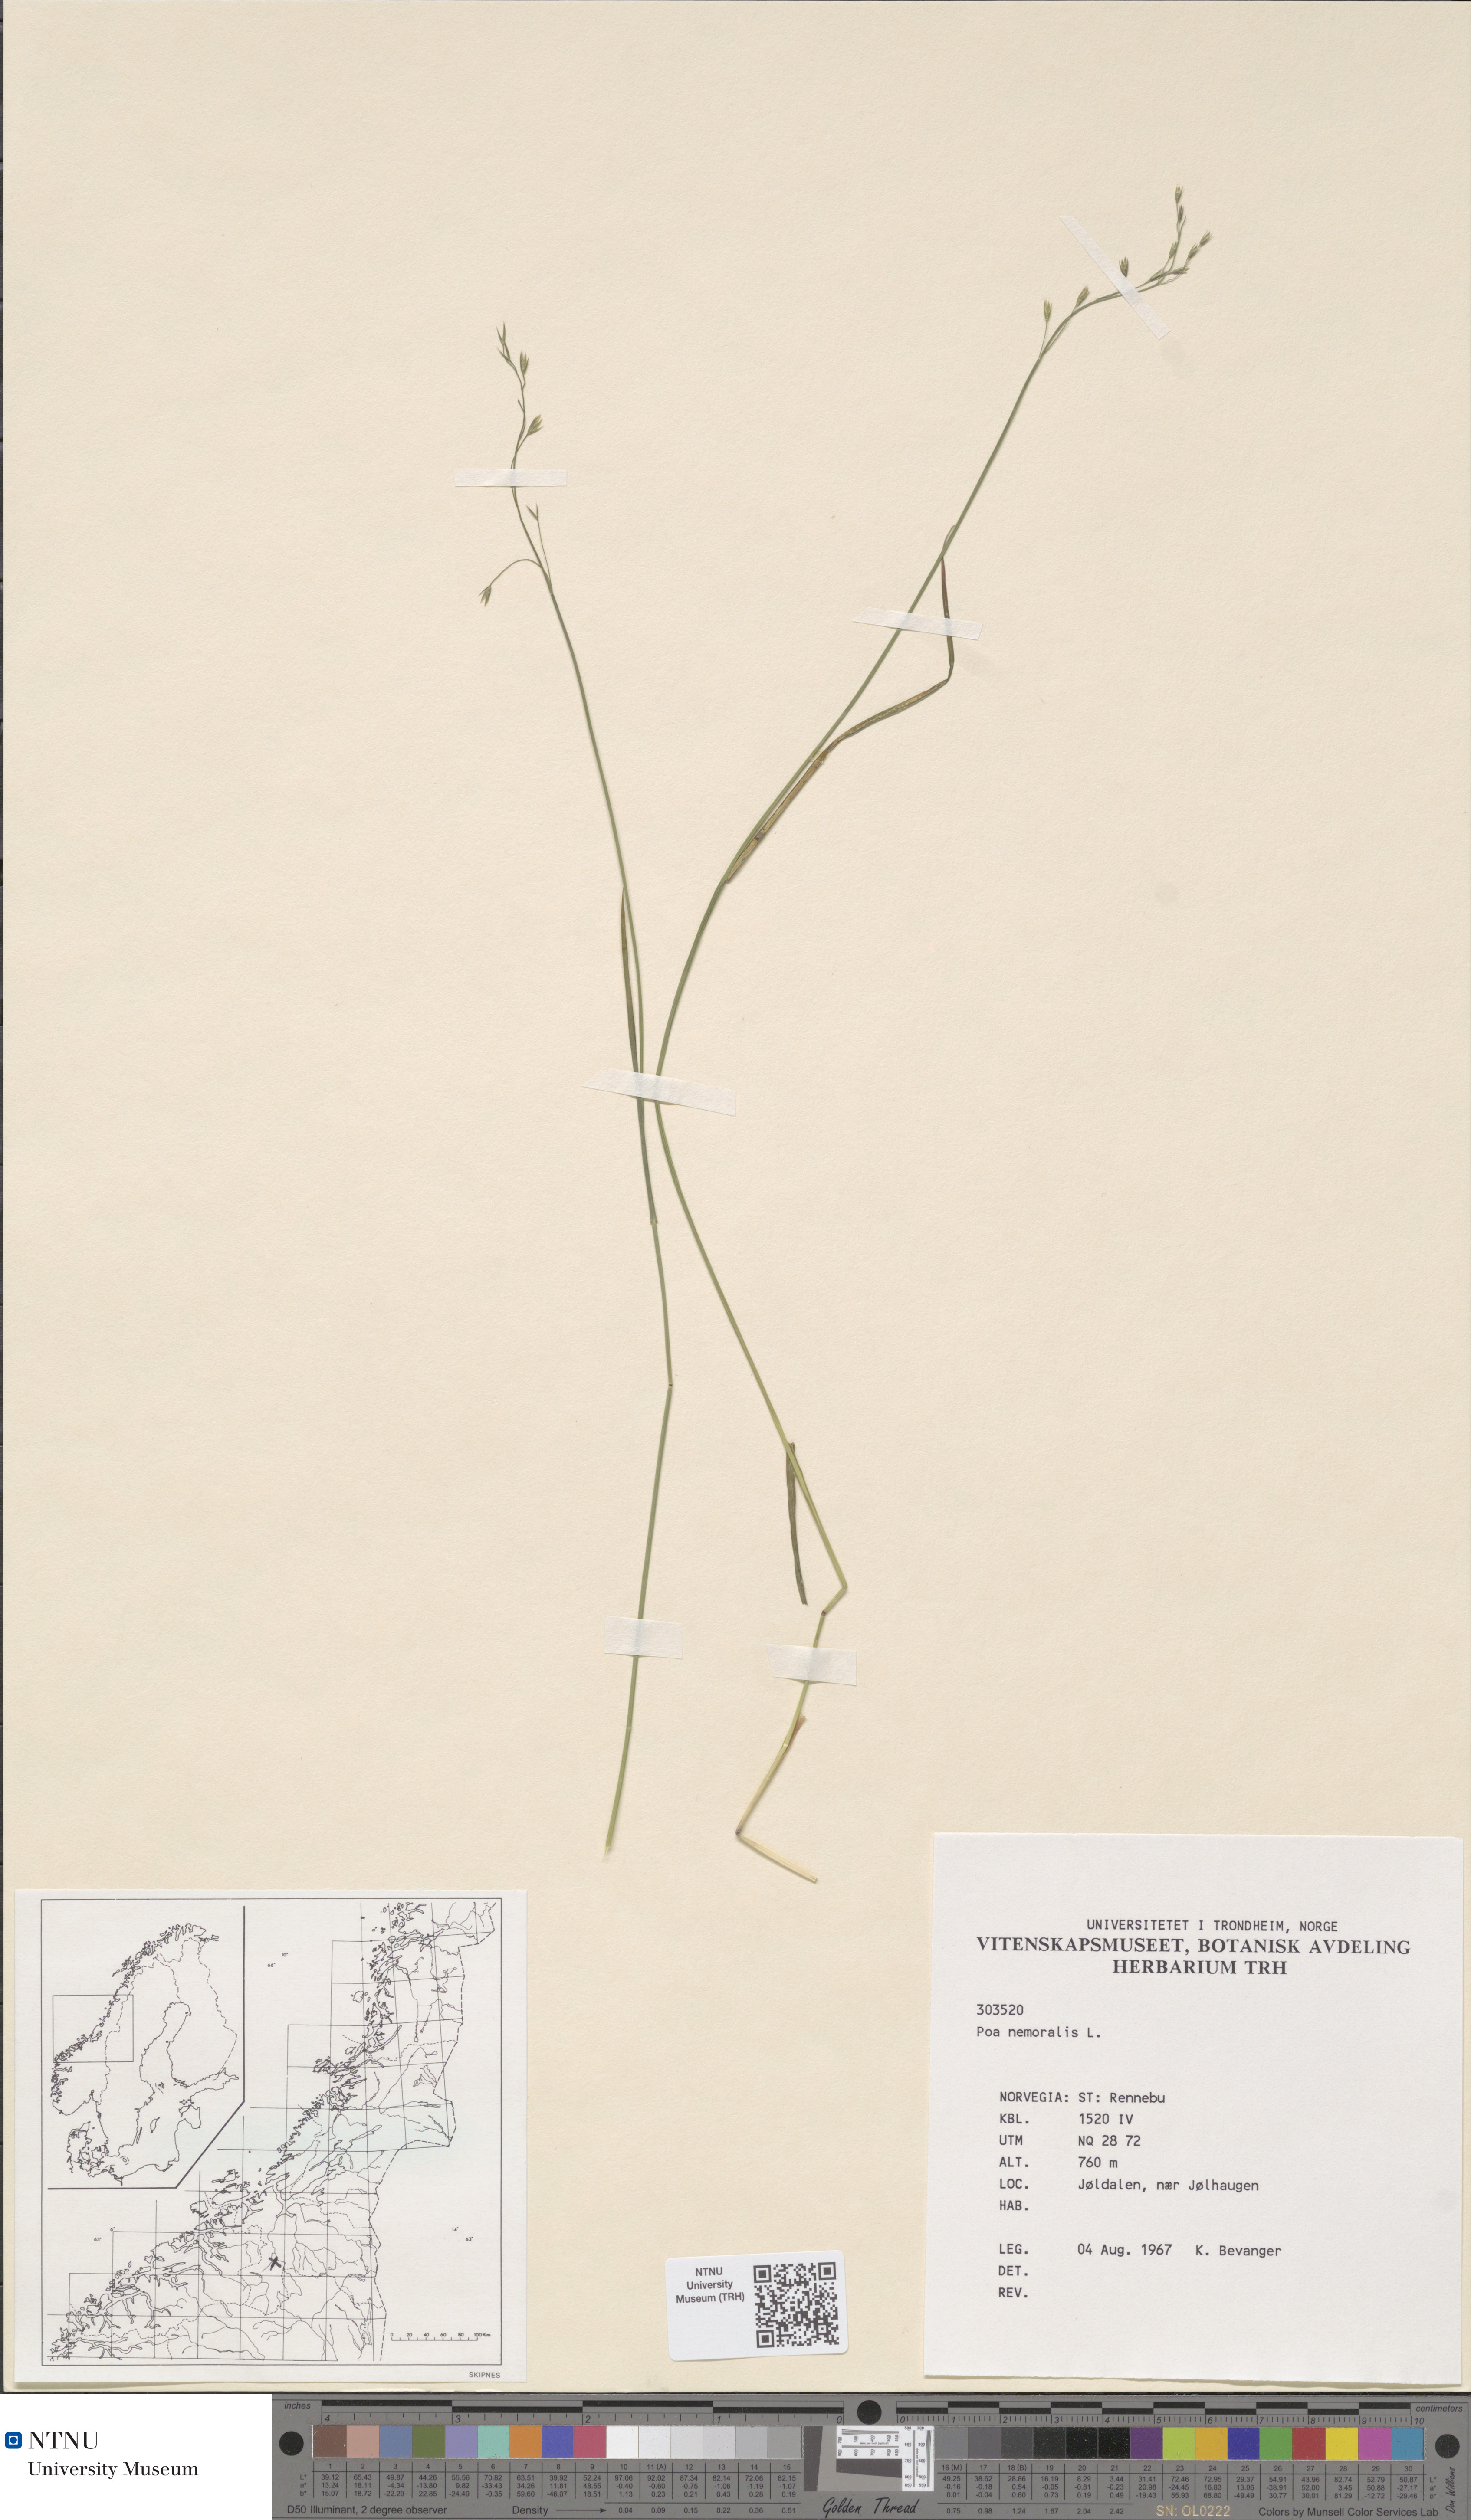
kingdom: Plantae
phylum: Tracheophyta
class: Liliopsida
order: Poales
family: Poaceae
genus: Poa
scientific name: Poa nemoralis
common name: Wood bluegrass
